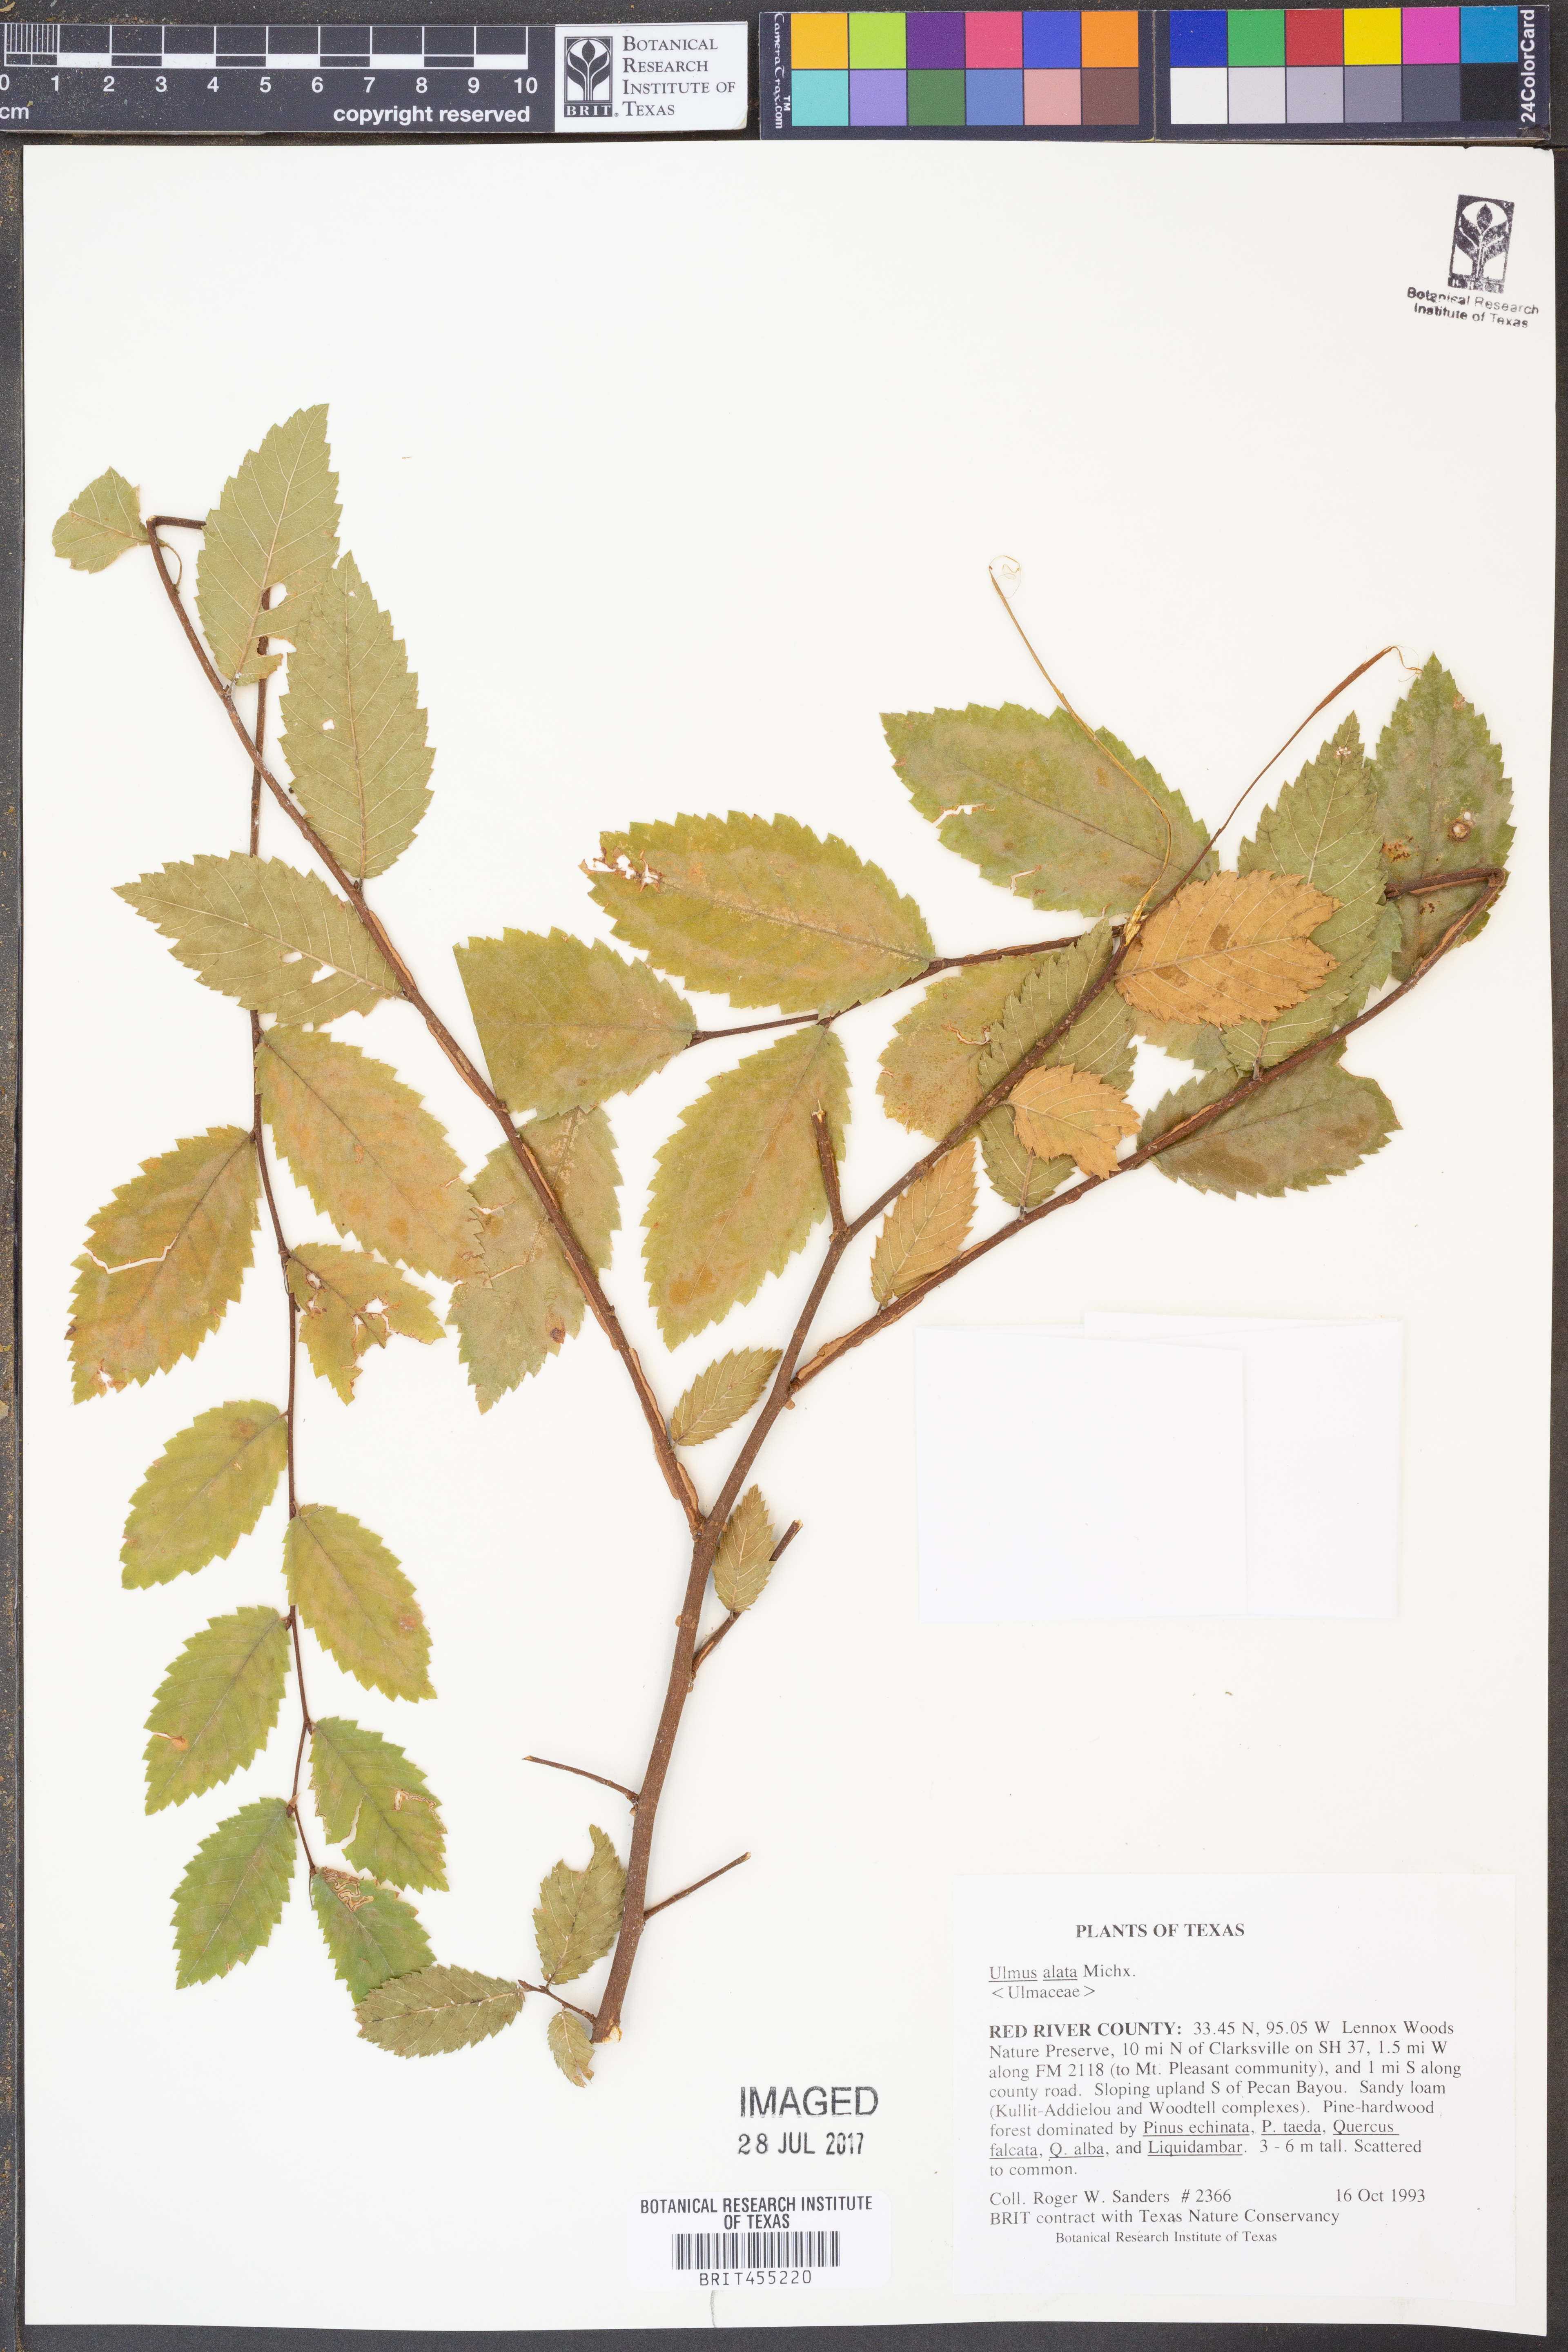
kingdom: Plantae
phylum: Tracheophyta
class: Magnoliopsida
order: Rosales
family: Ulmaceae
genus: Ulmus
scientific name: Ulmus alata
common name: Winged elm
